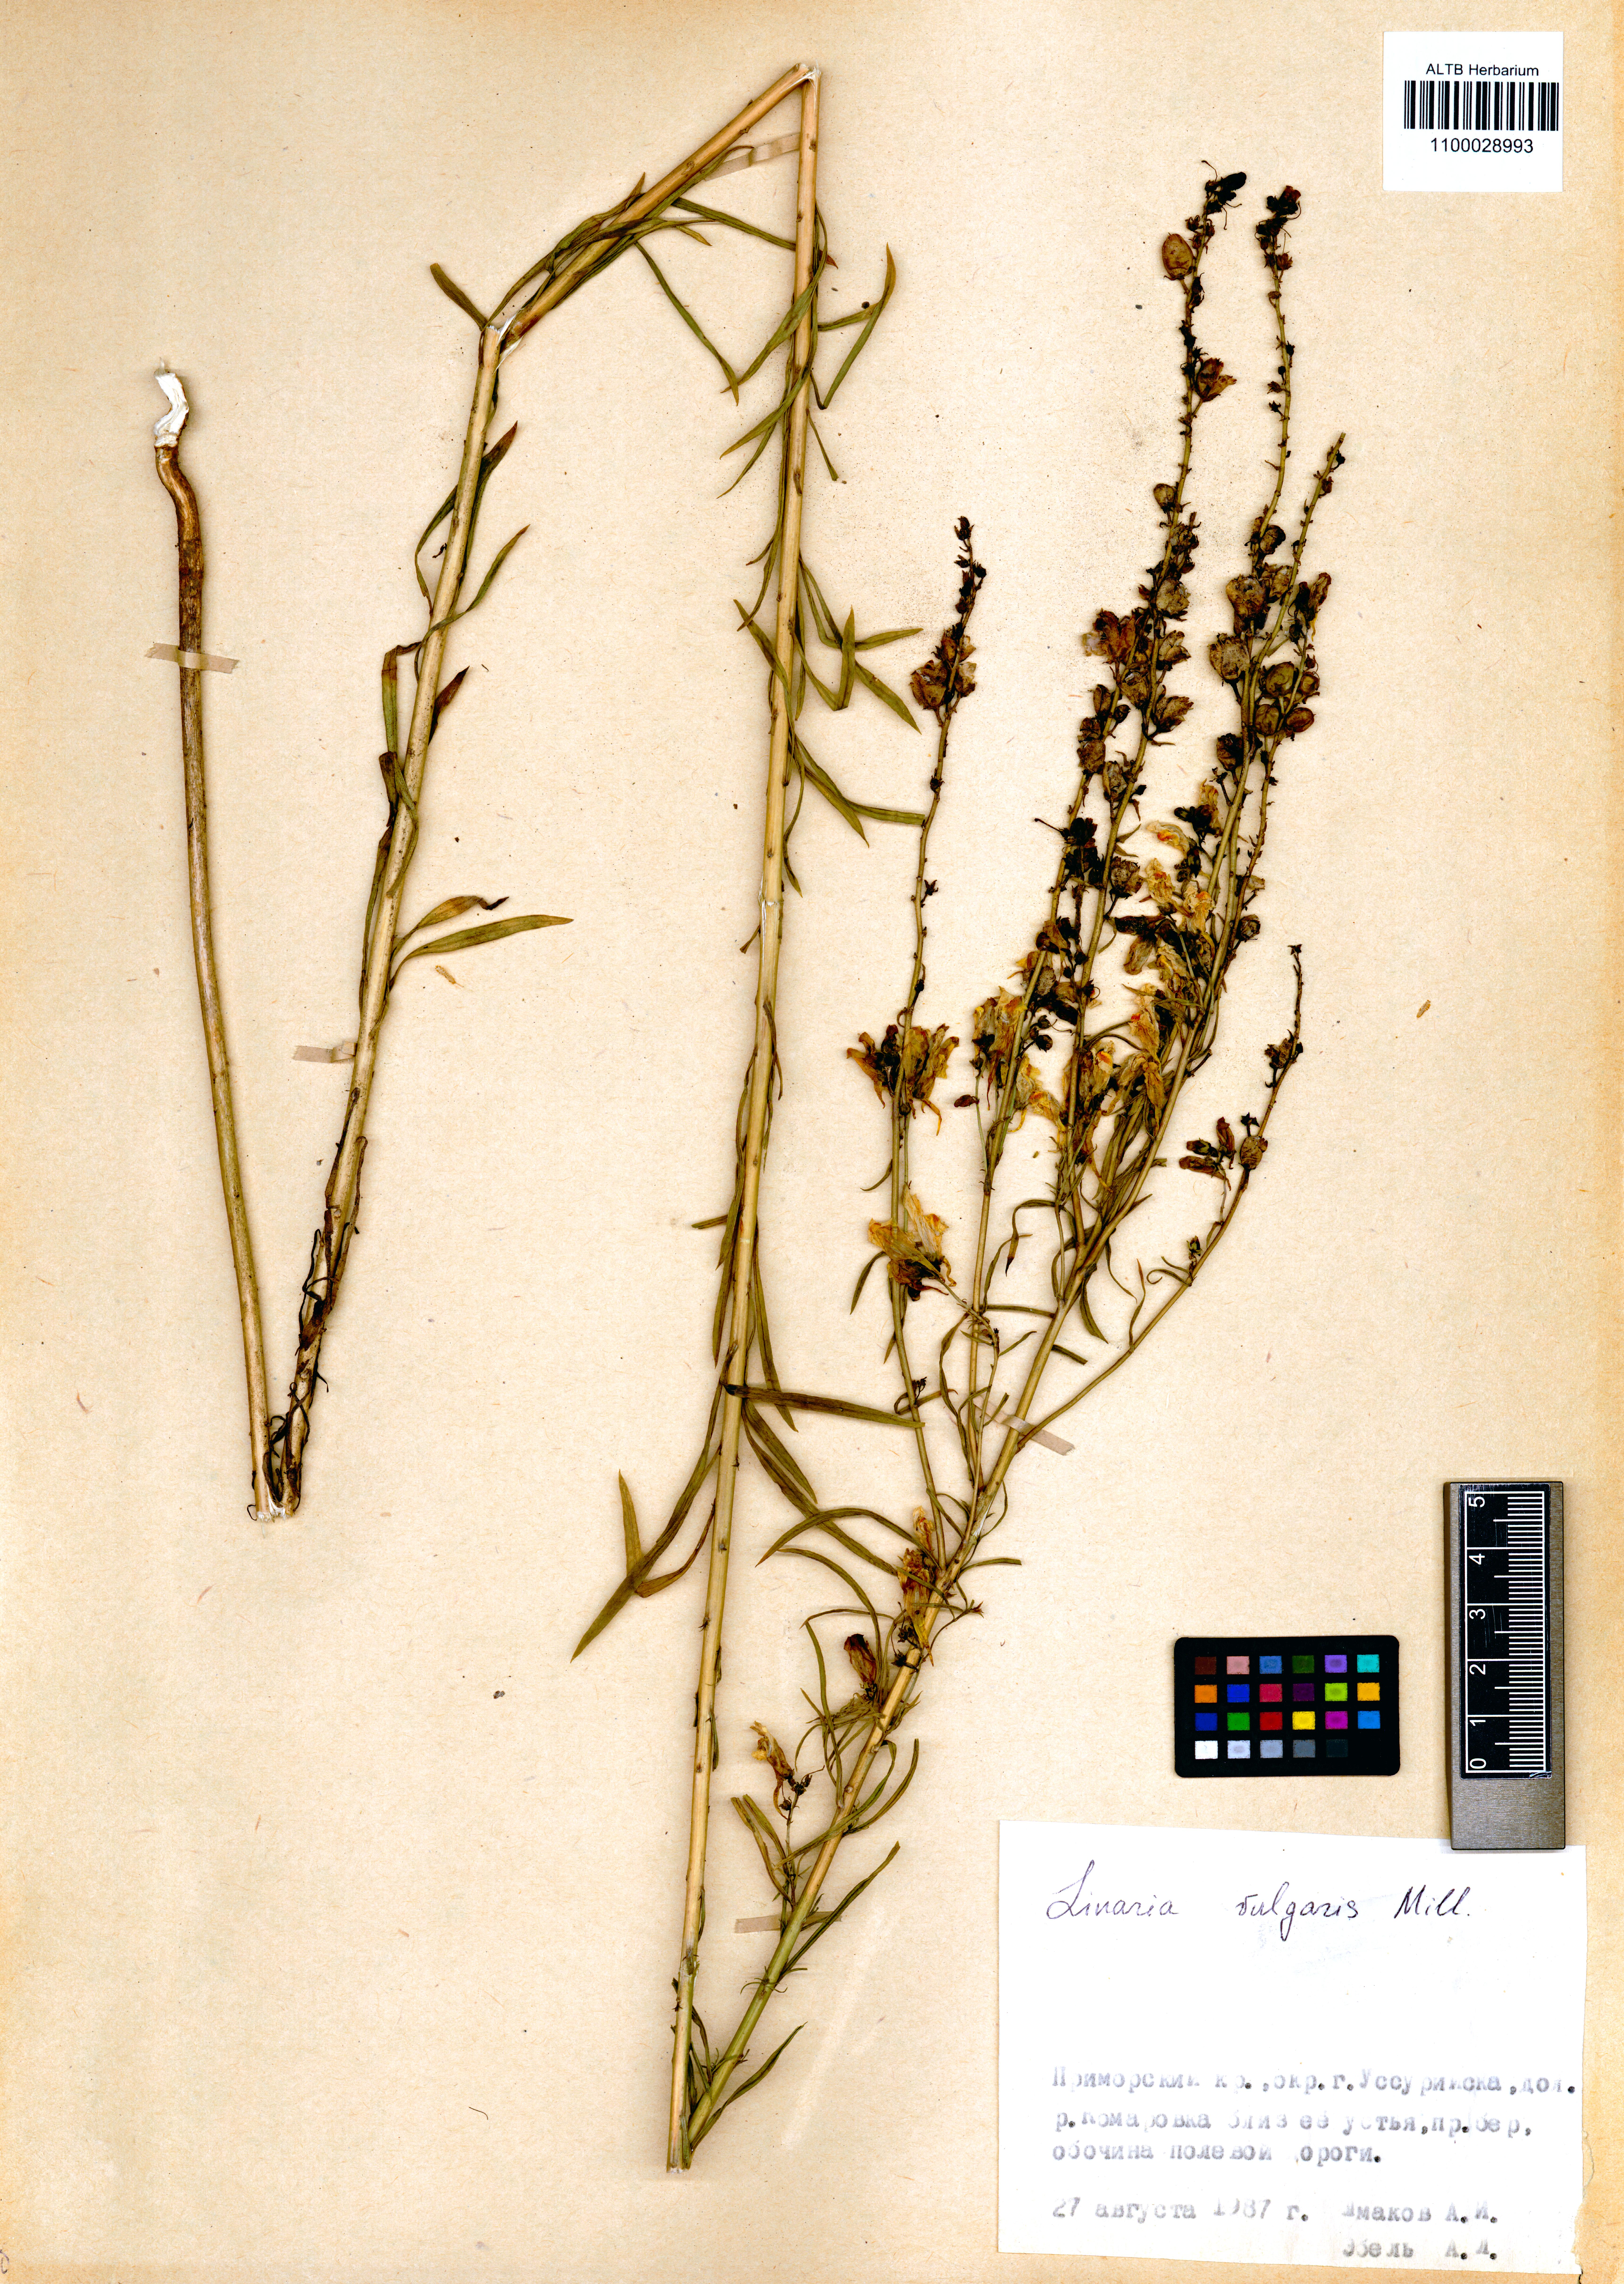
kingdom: Plantae
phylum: Tracheophyta
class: Magnoliopsida
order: Lamiales
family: Plantaginaceae
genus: Linaria
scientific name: Linaria vulgaris
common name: Butter and eggs
